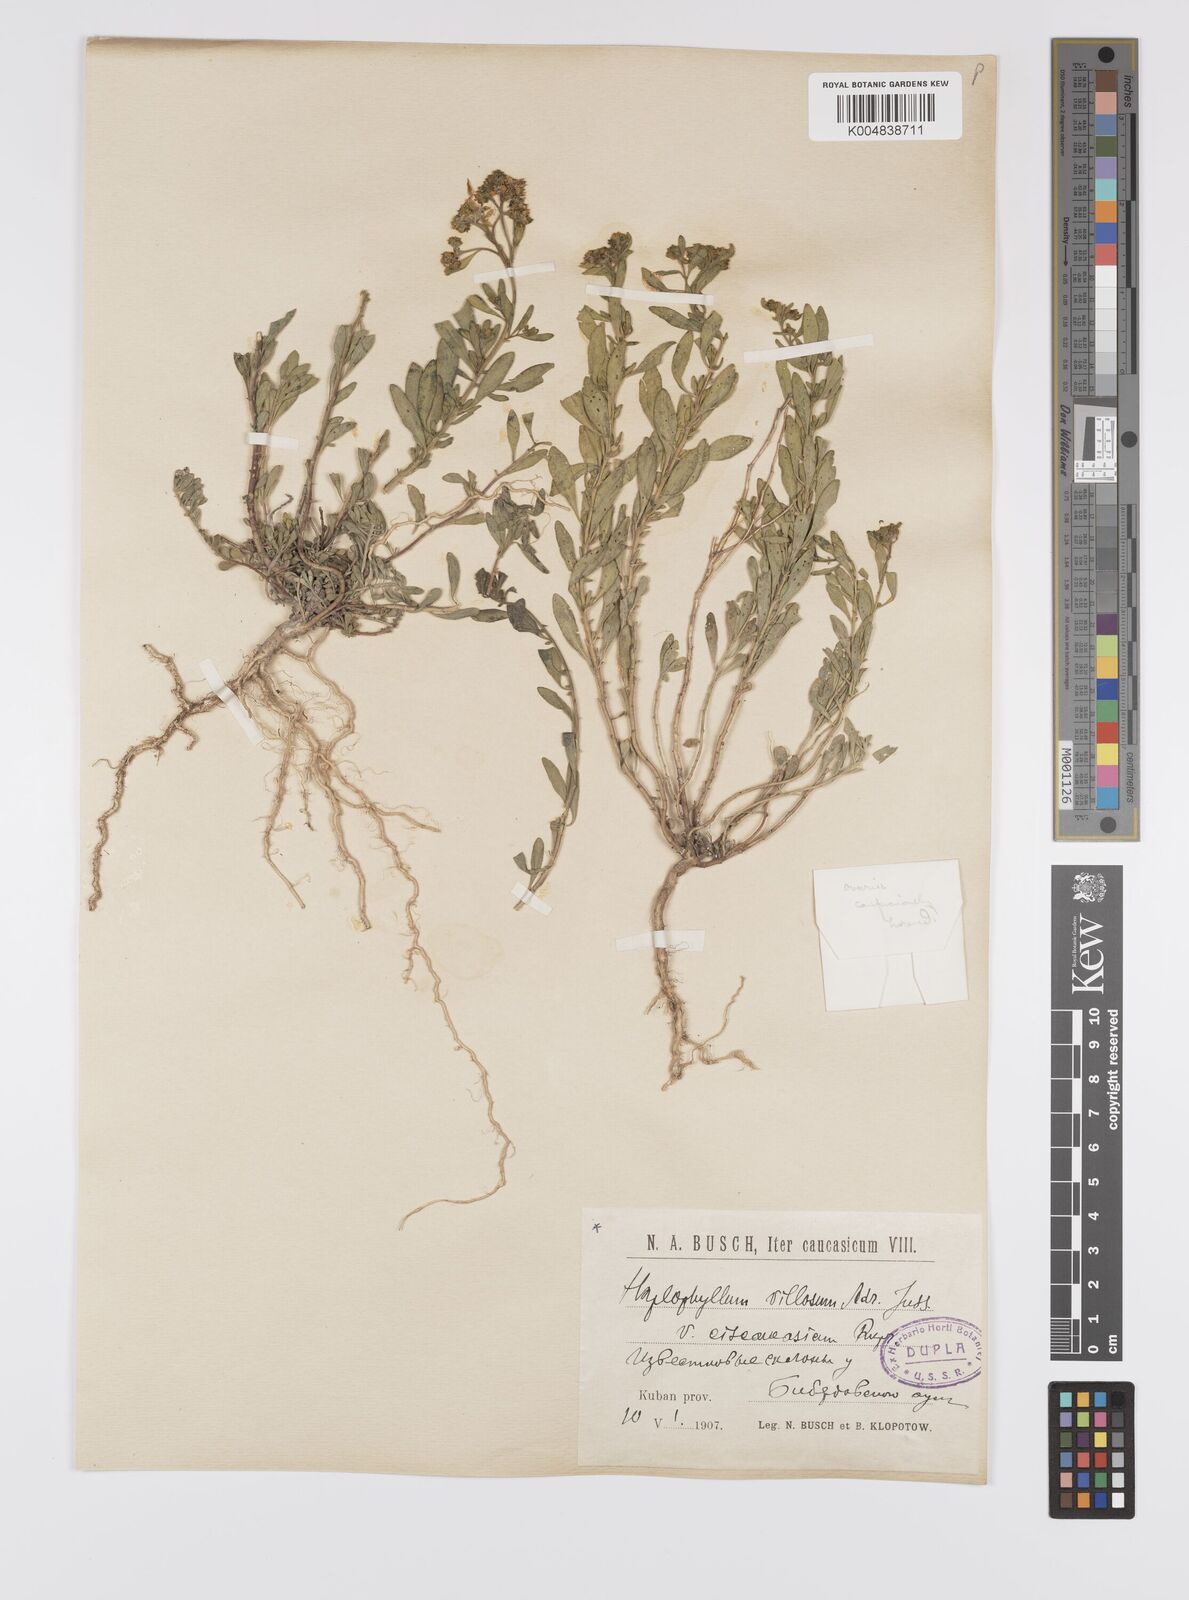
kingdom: Plantae
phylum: Tracheophyta
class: Magnoliopsida
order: Sapindales
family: Rutaceae
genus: Haplophyllum
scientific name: Haplophyllum ciscaucasicum
